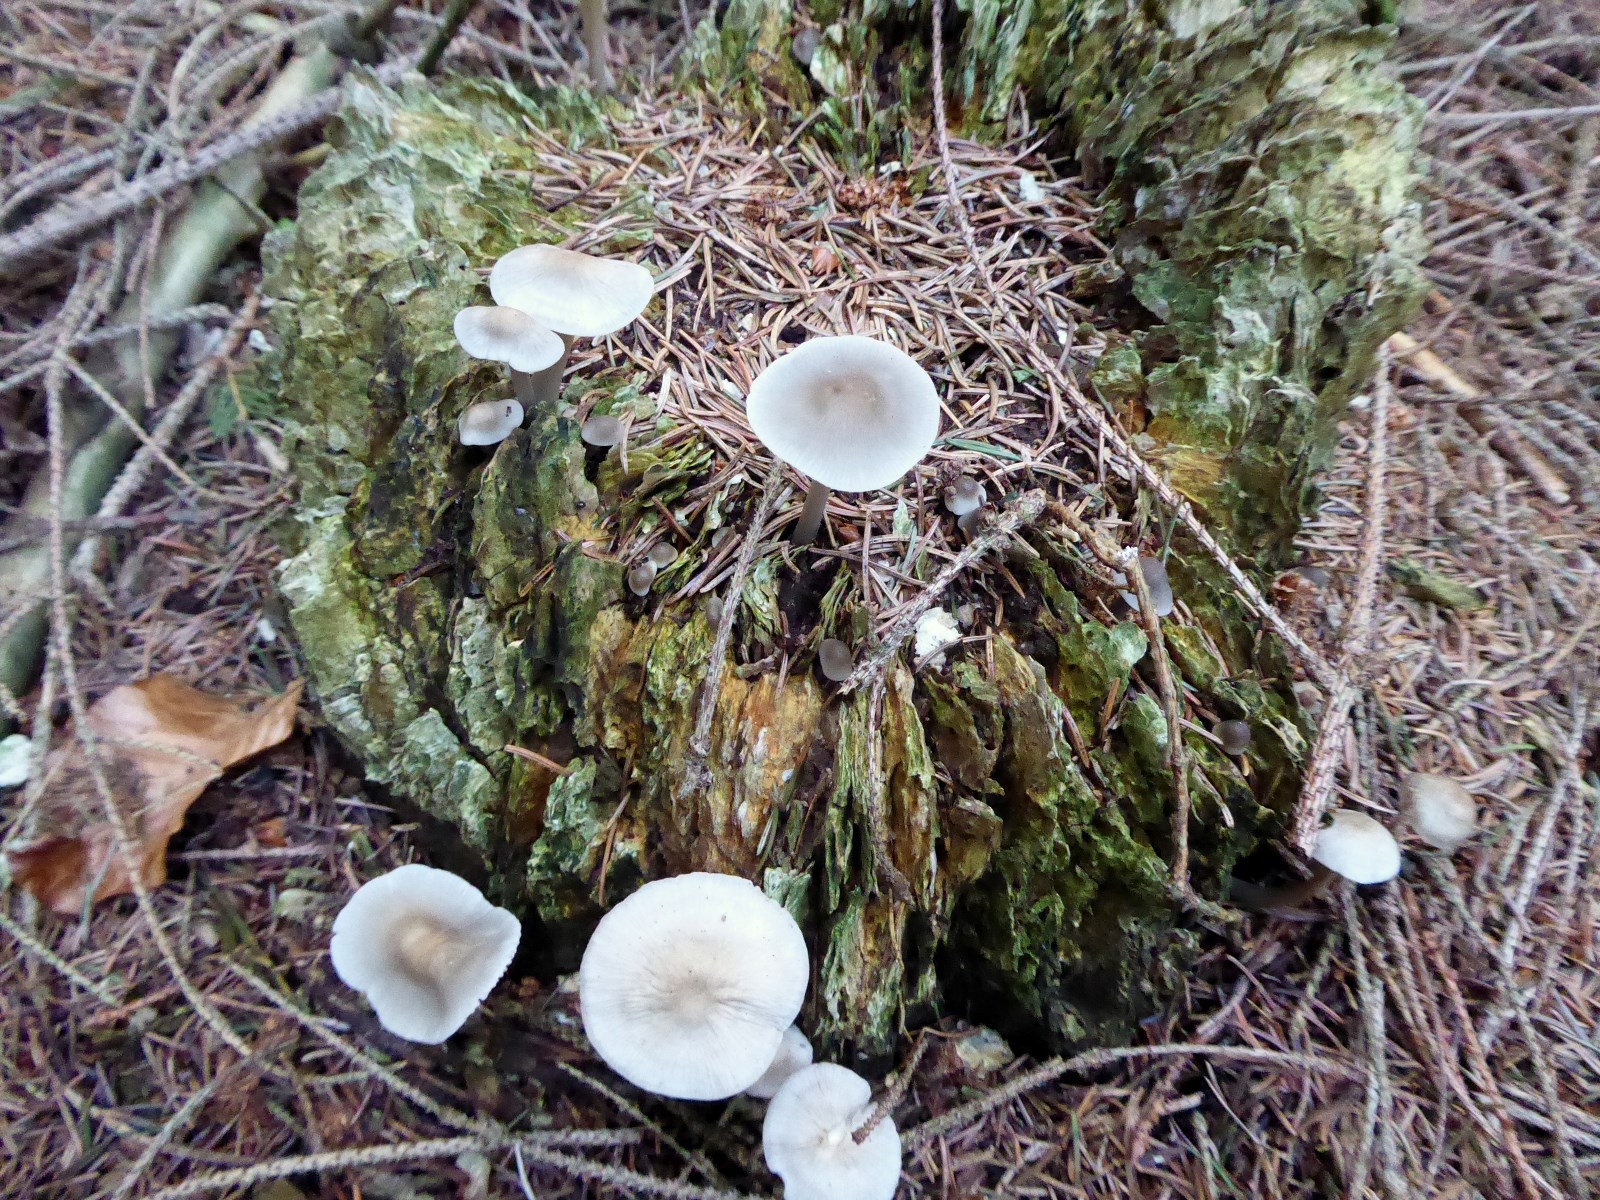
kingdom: Fungi
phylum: Basidiomycota
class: Agaricomycetes
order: Agaricales
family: Mycenaceae
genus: Mycena
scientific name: Mycena galericulata
